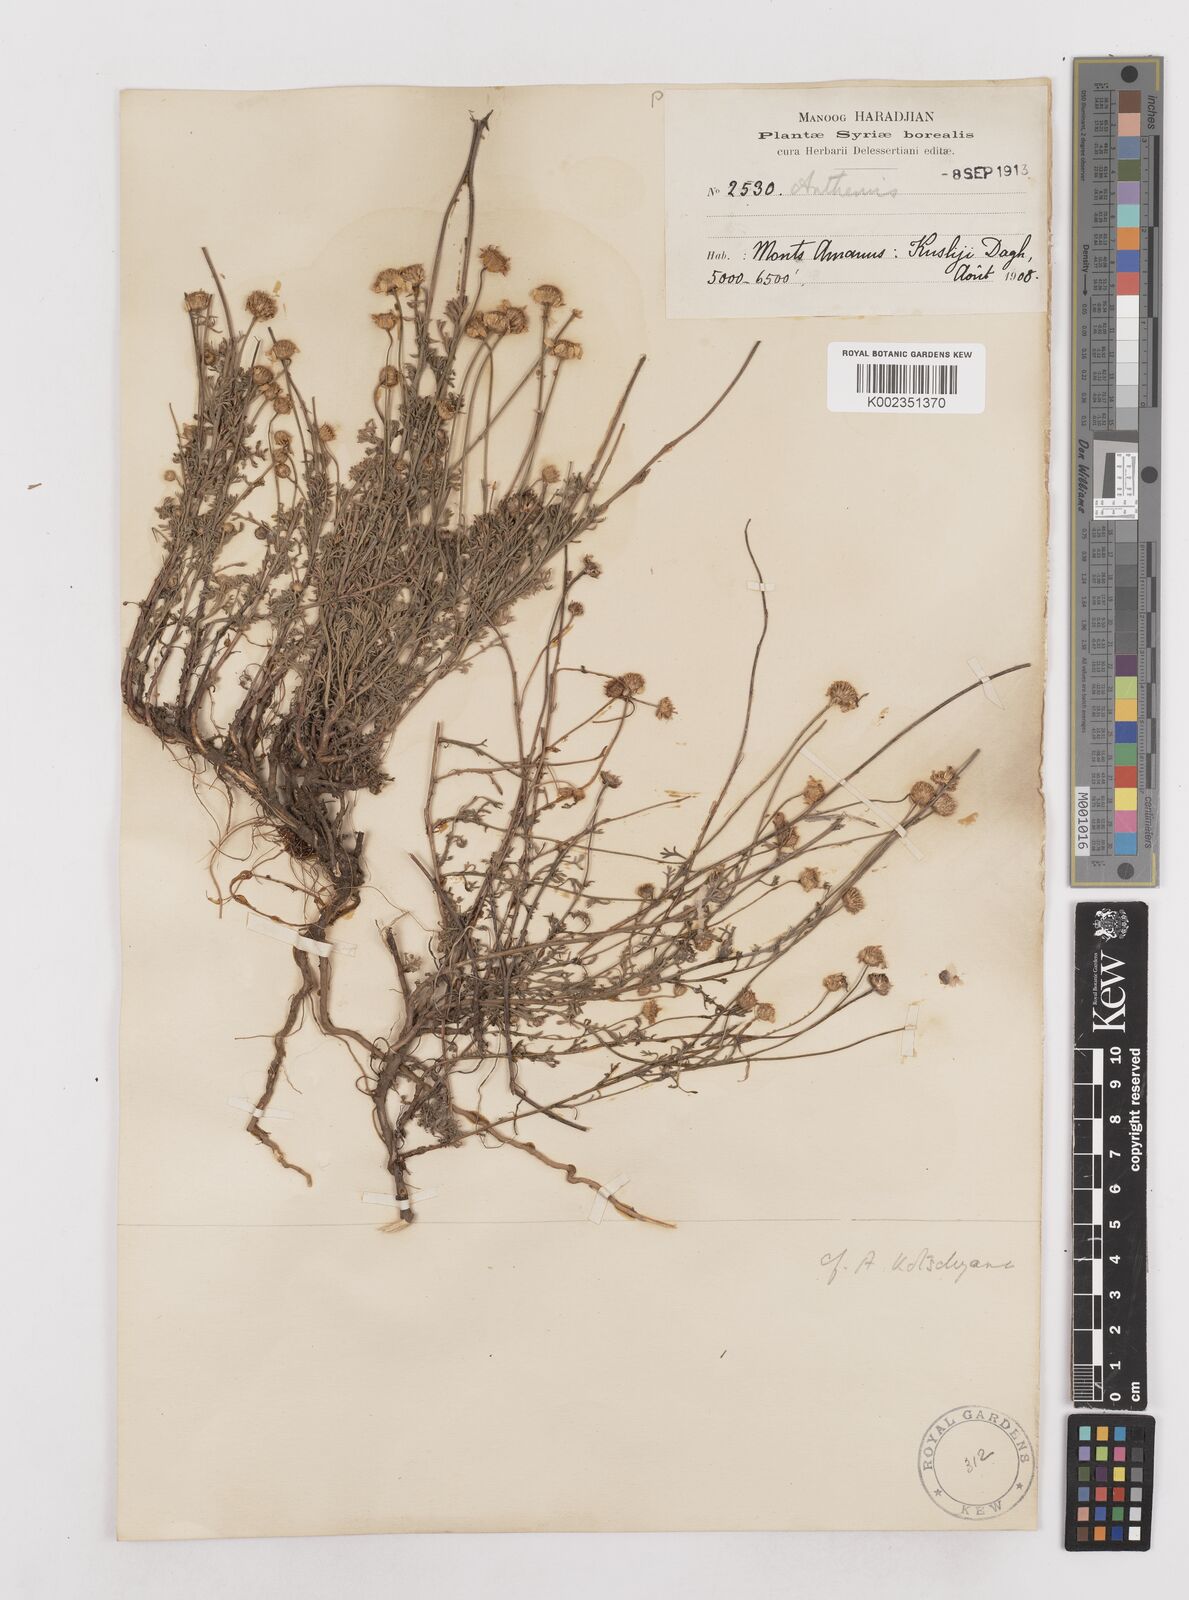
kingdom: Plantae
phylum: Tracheophyta
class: Magnoliopsida
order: Asterales
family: Asteraceae
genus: Anthemis
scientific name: Anthemis kotschyana
